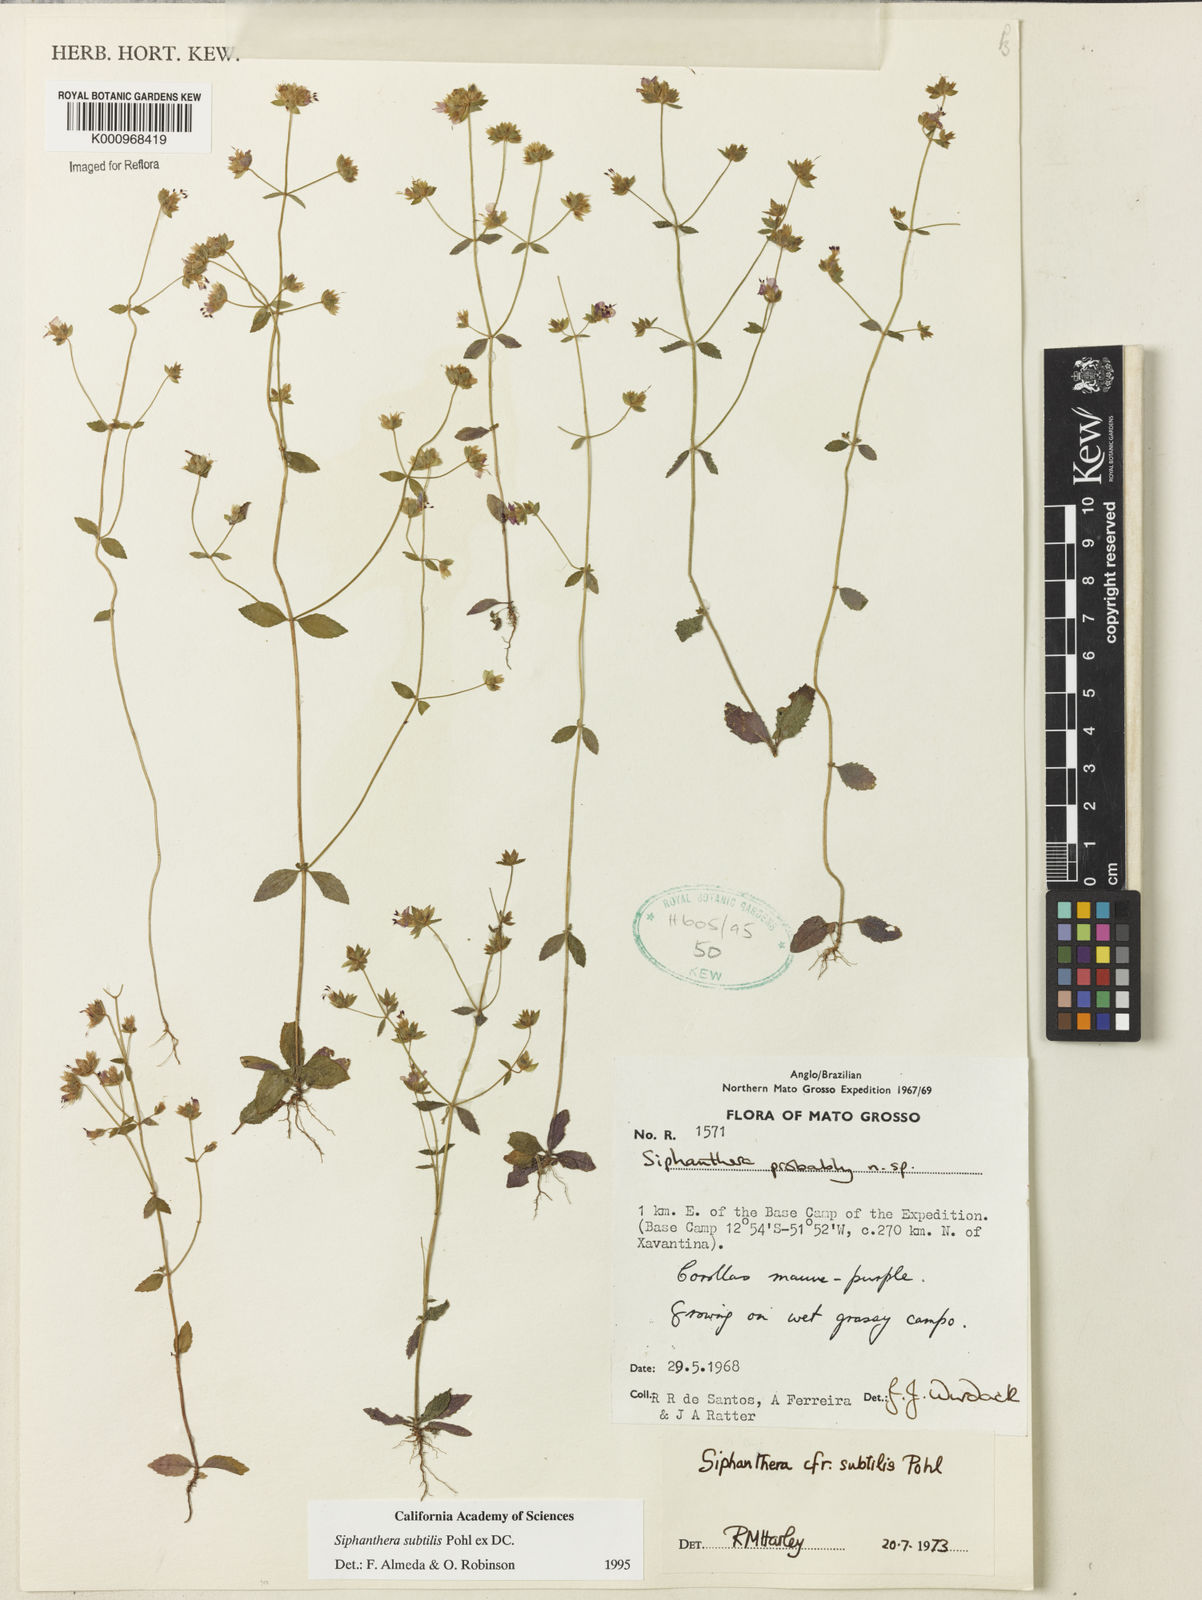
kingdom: Plantae
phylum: Tracheophyta
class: Magnoliopsida
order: Myrtales
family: Melastomataceae
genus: Siphanthera
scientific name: Siphanthera
